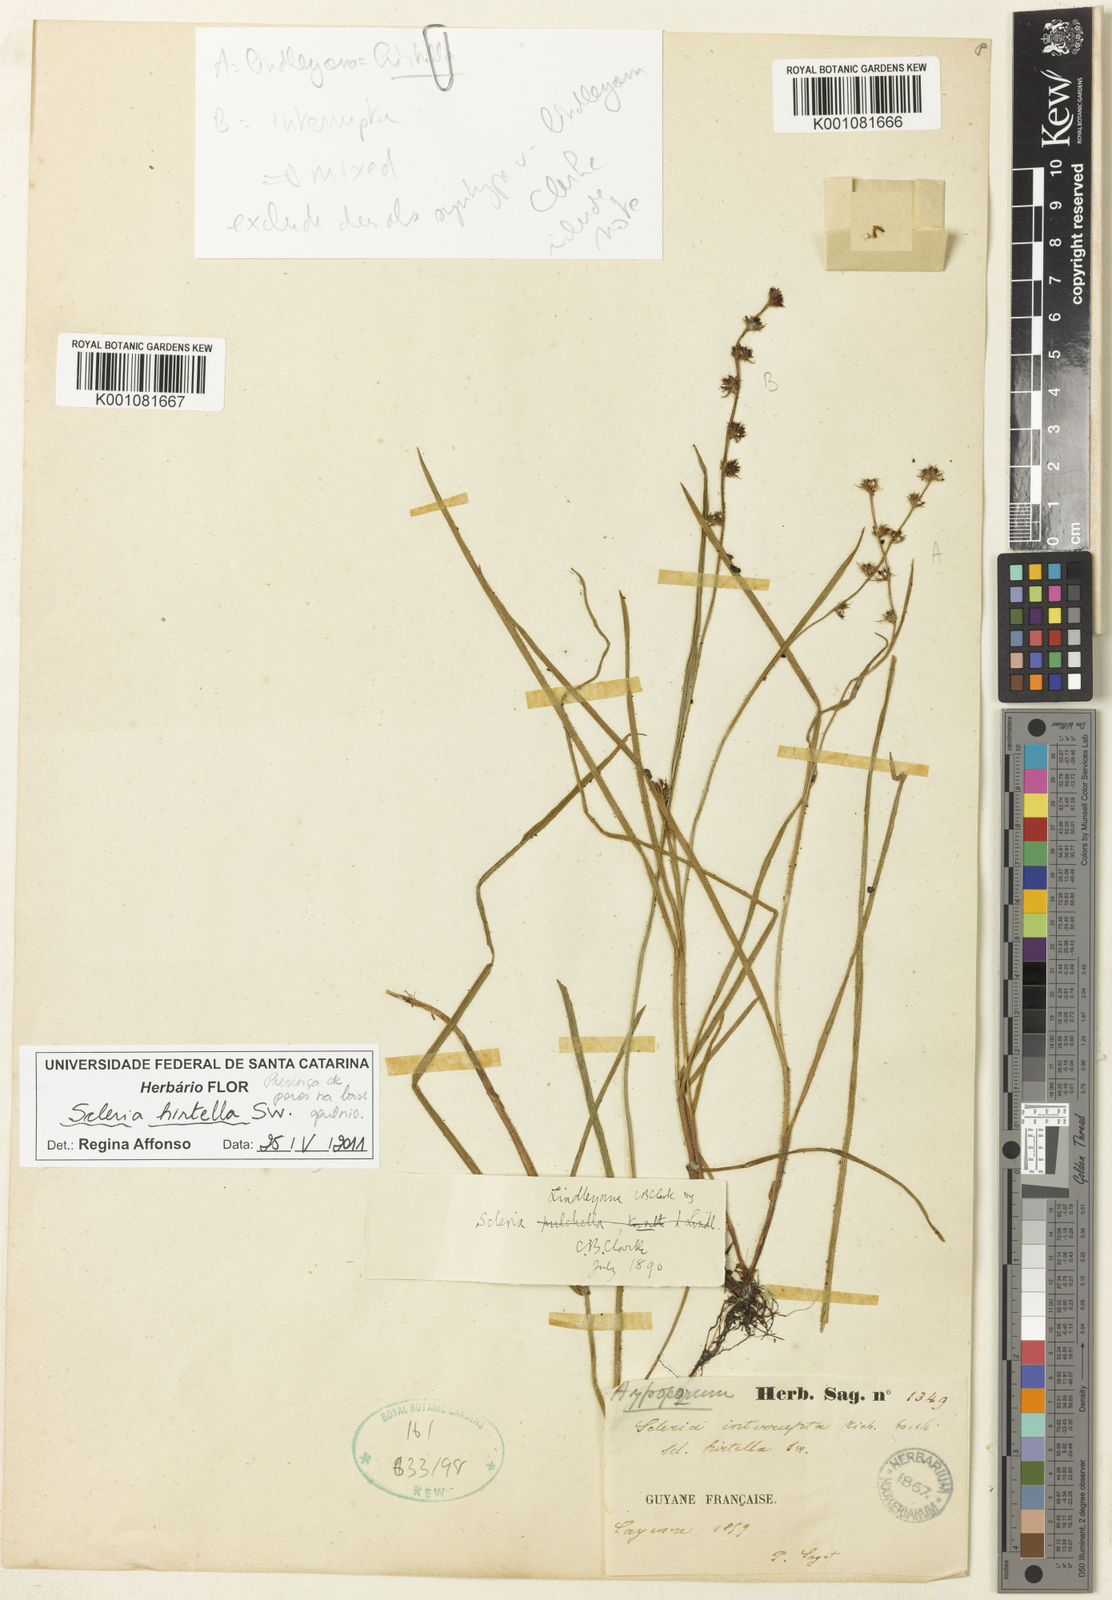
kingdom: Plantae
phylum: Tracheophyta
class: Liliopsida
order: Poales
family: Cyperaceae
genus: Scleria
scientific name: Scleria hirtella
